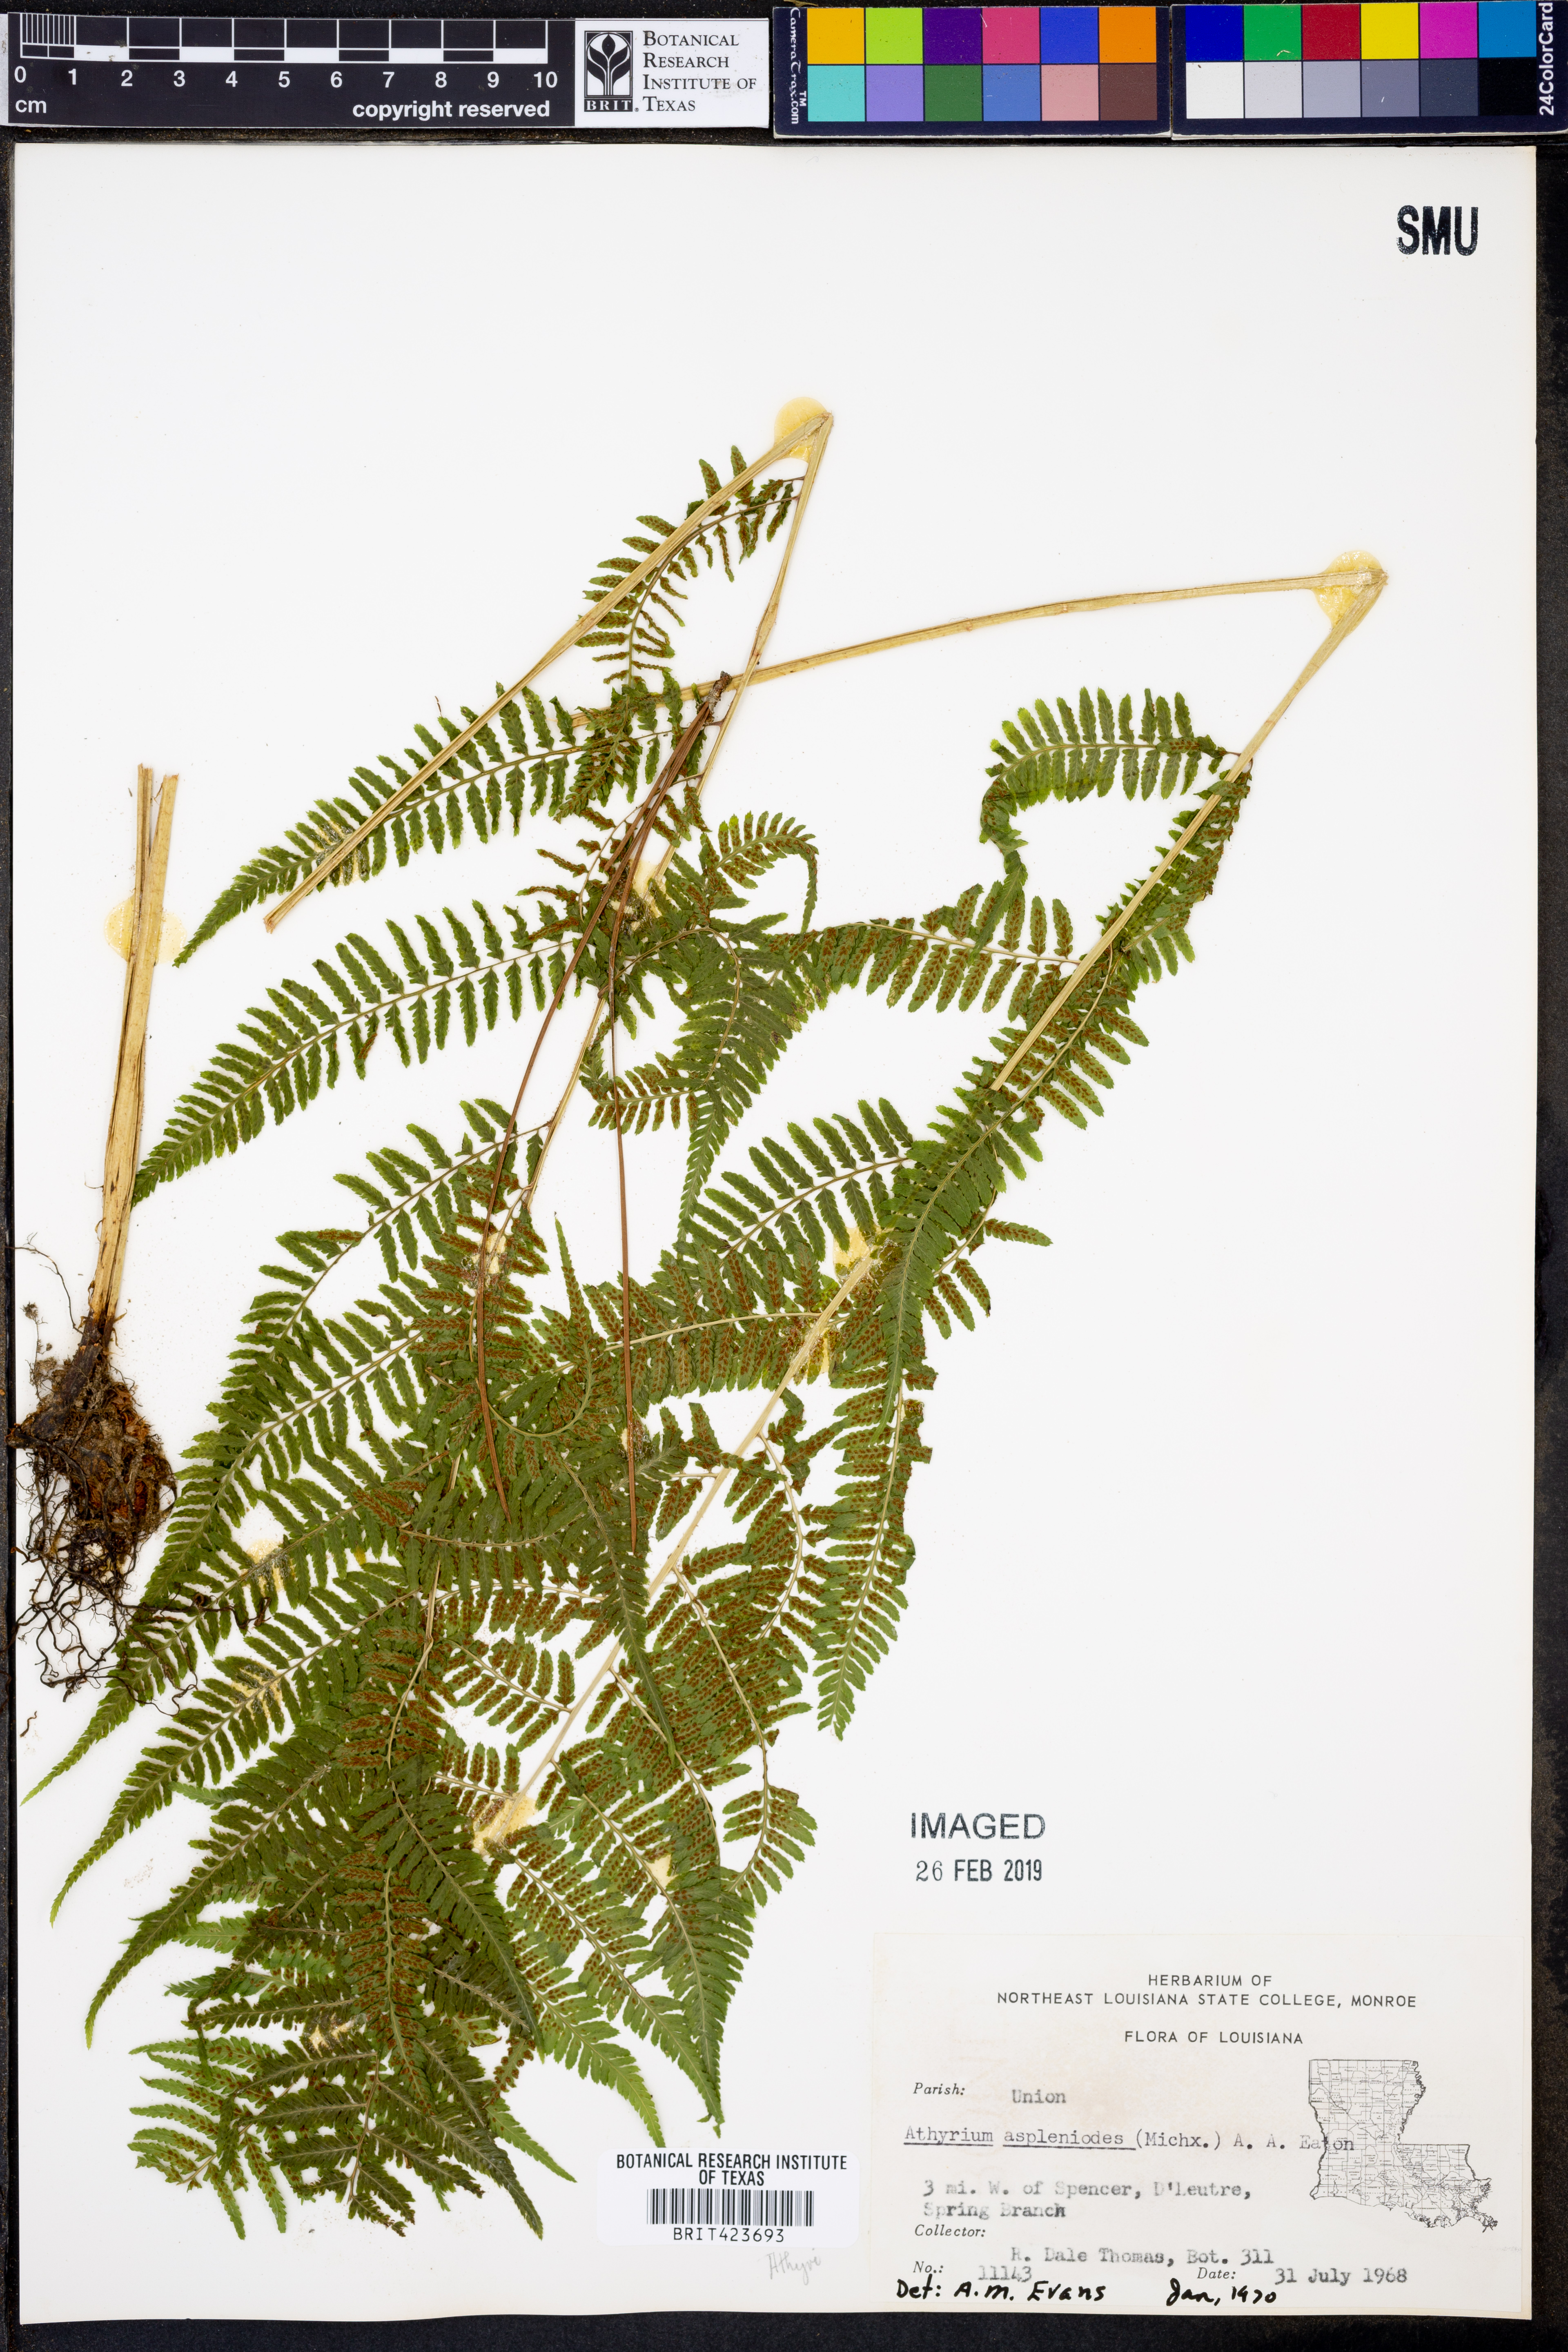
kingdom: Plantae
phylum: Tracheophyta
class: Polypodiopsida
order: Polypodiales
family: Athyriaceae
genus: Athyrium
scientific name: Athyrium asplenioides
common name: Southern lady fern
